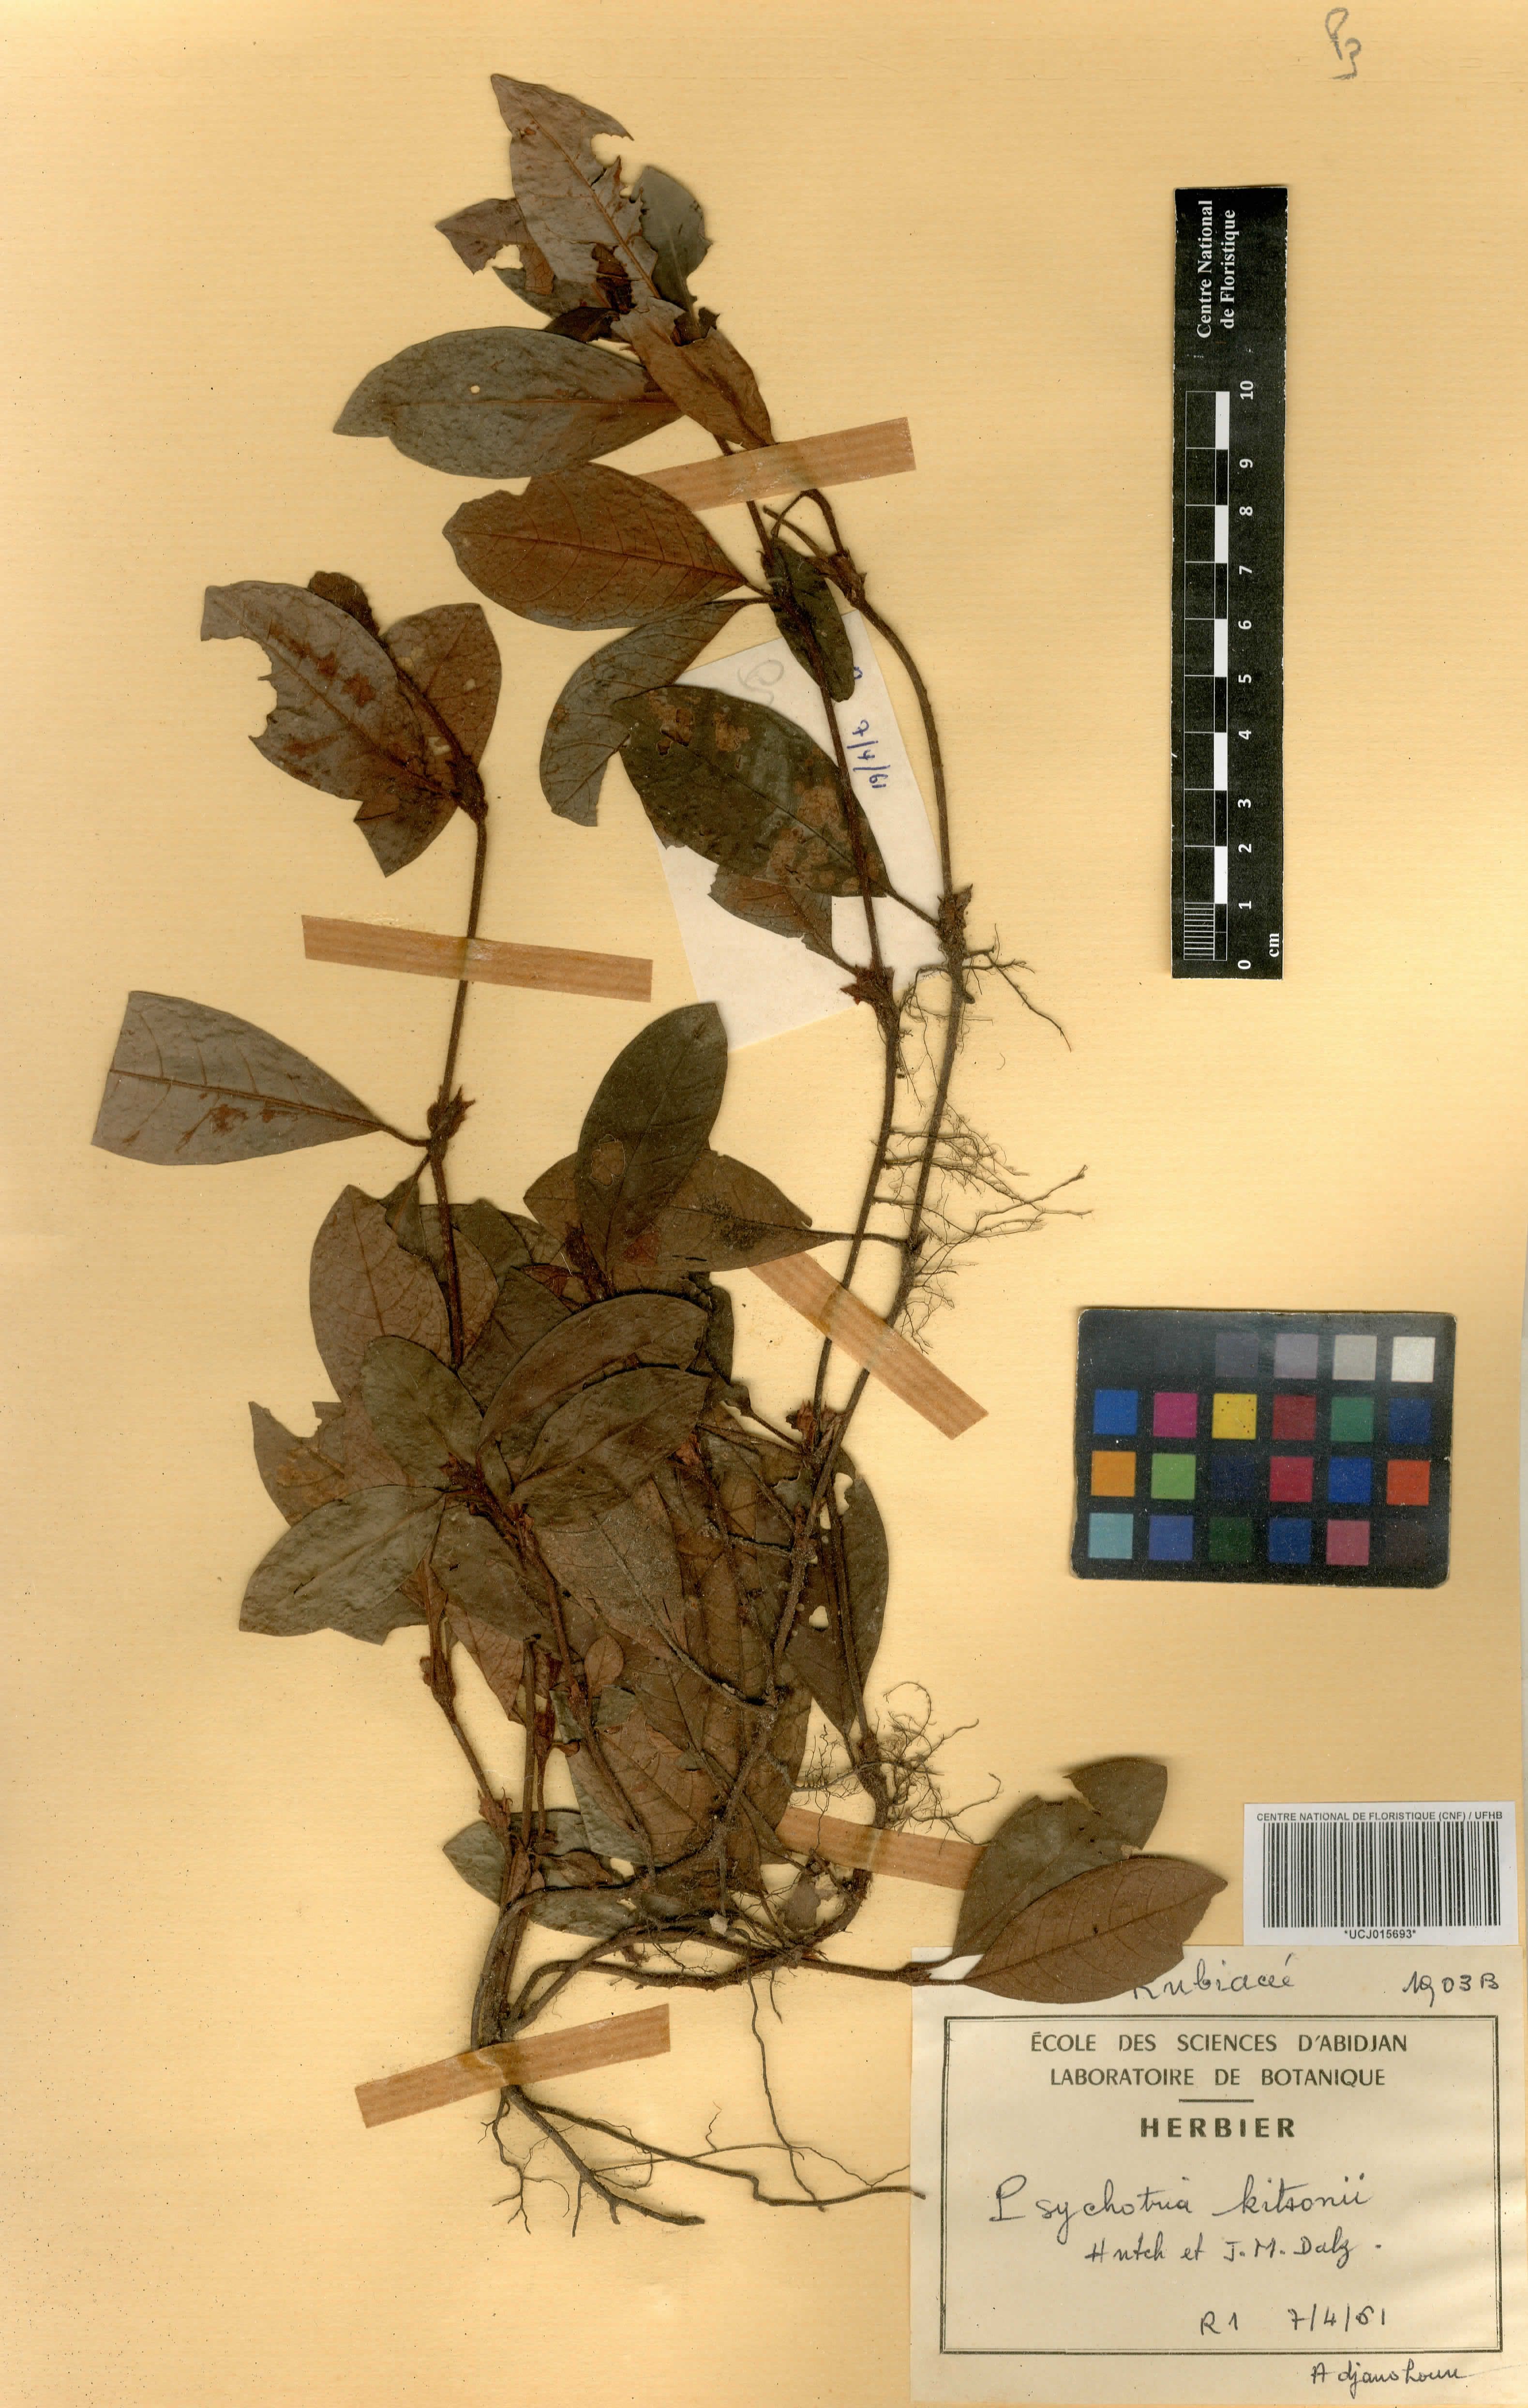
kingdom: Plantae
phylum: Tracheophyta
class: Magnoliopsida
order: Gentianales
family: Rubiaceae
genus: Psychotria
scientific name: Psychotria kitsonii
